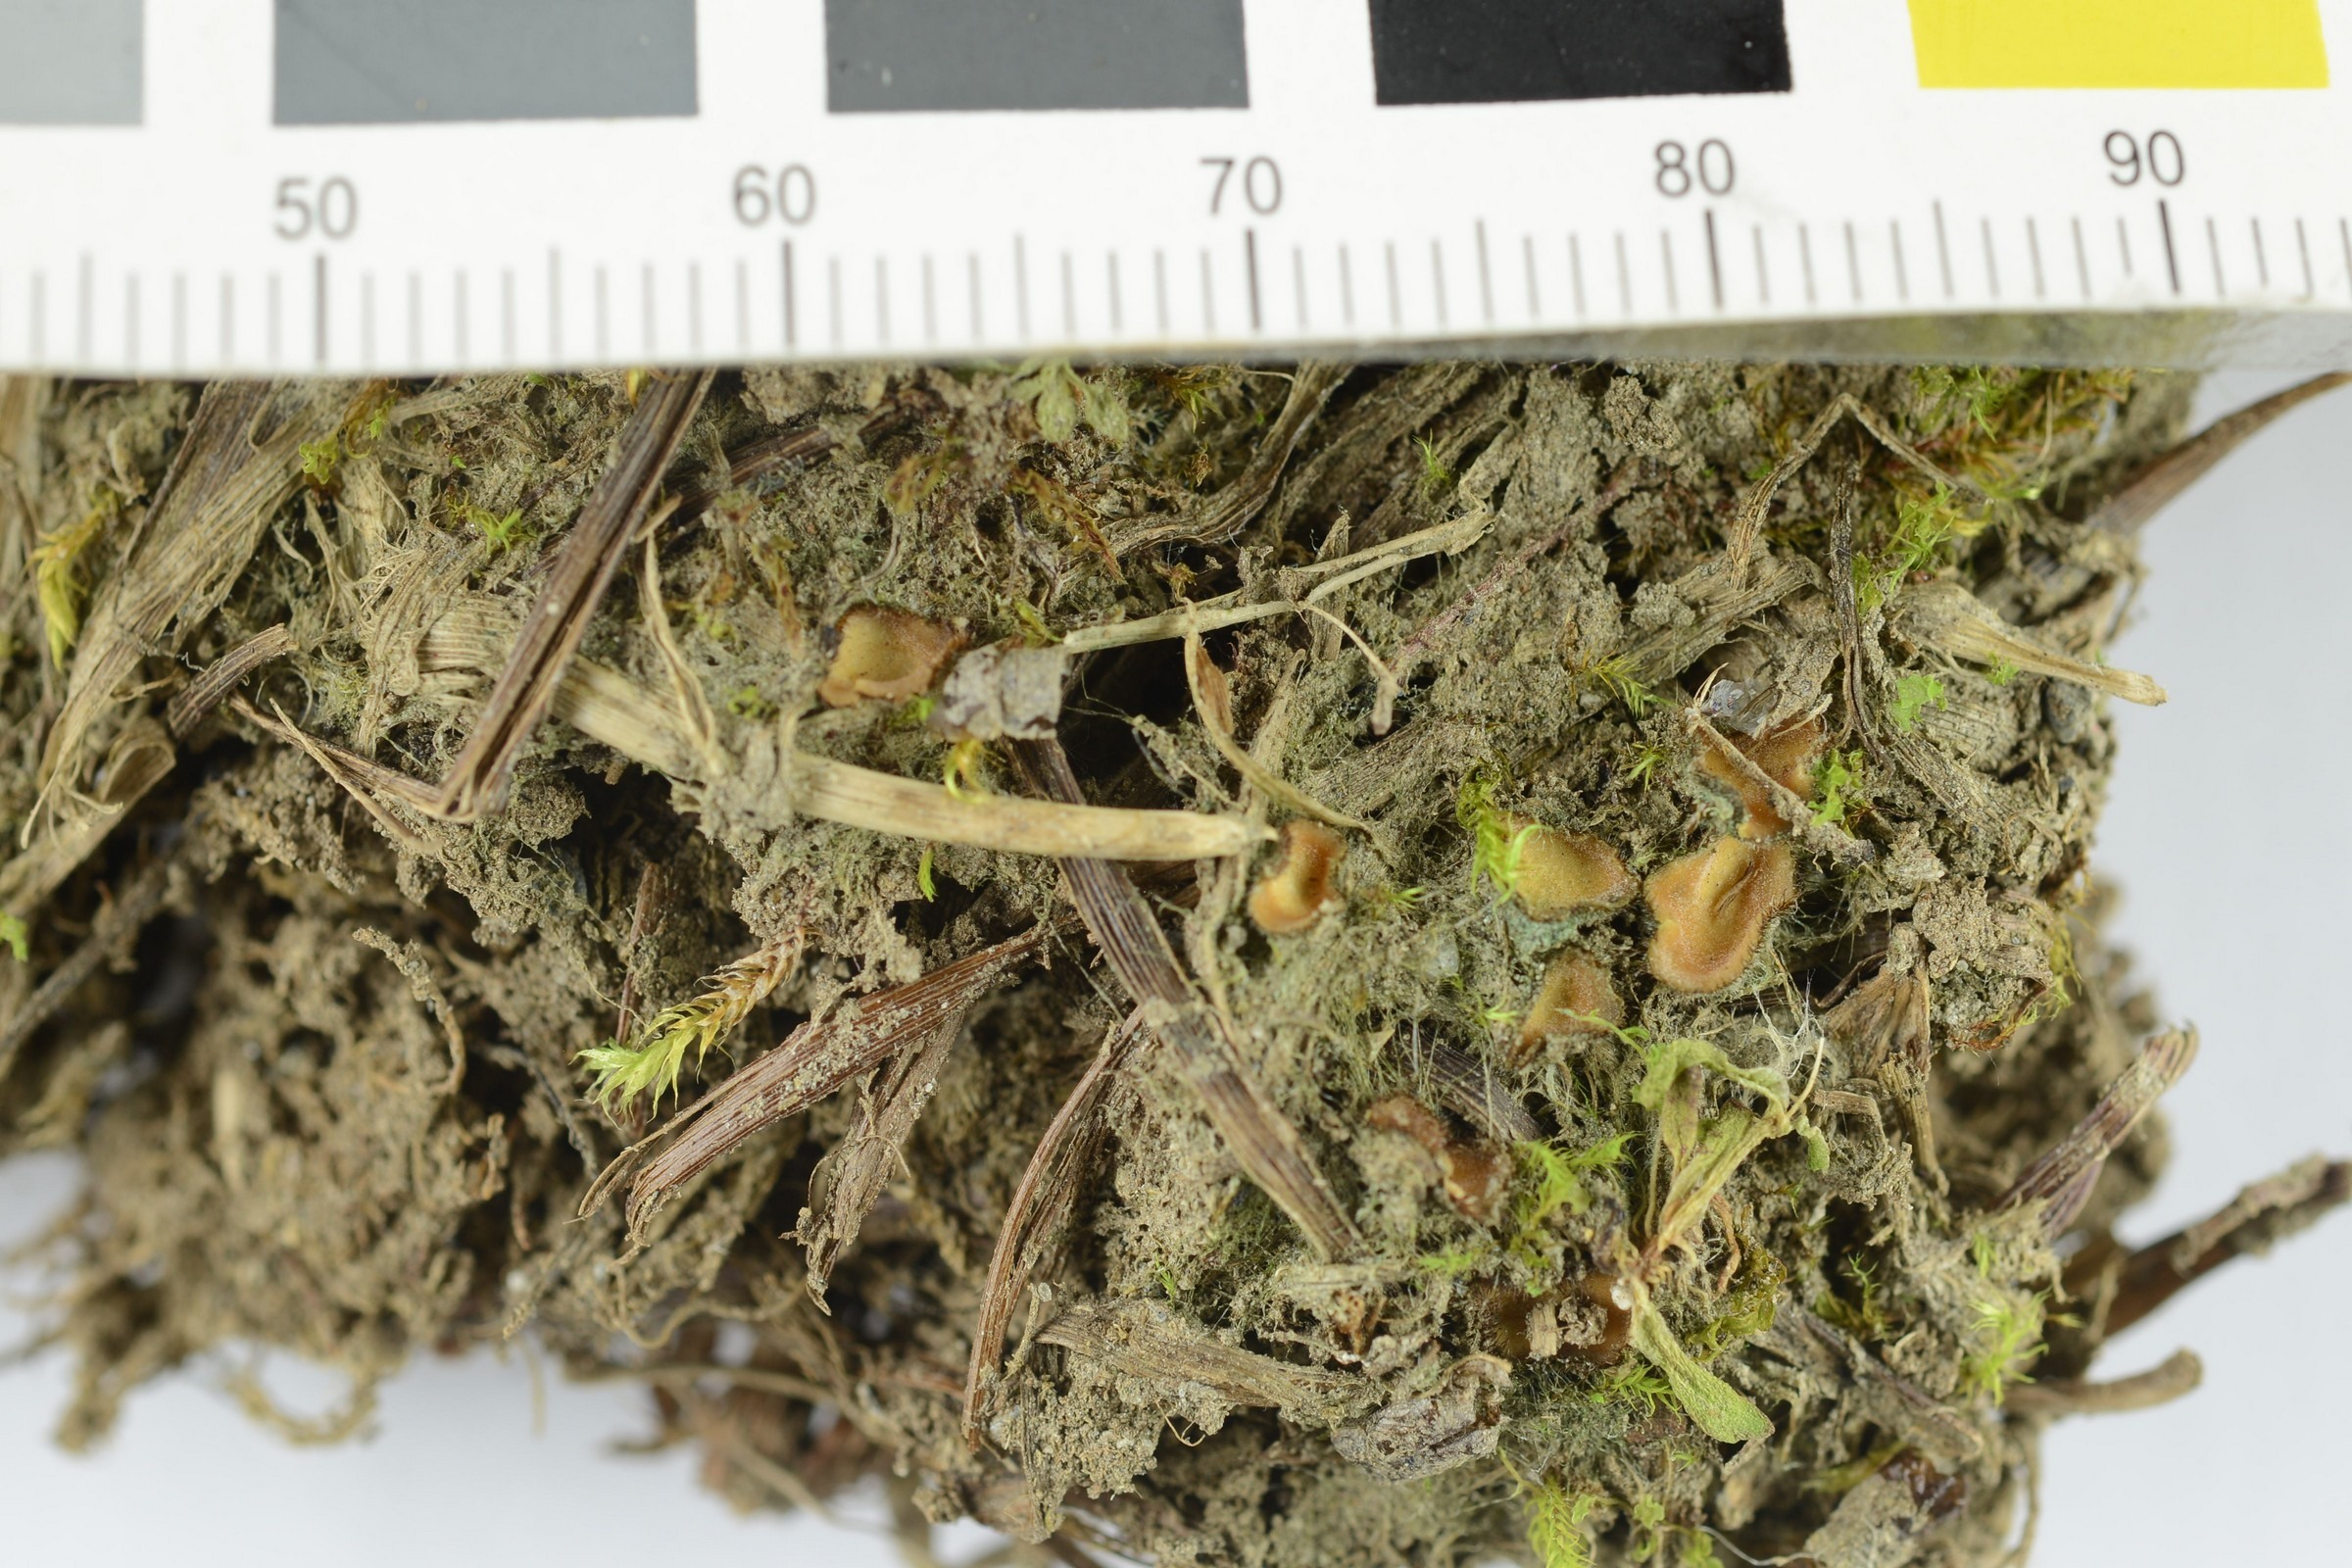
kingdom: Fungi
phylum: Ascomycota
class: Pezizomycetes
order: Pezizales
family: Pyronemataceae
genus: Scutellinia
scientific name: Scutellinia scutellata
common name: Common eyelash
